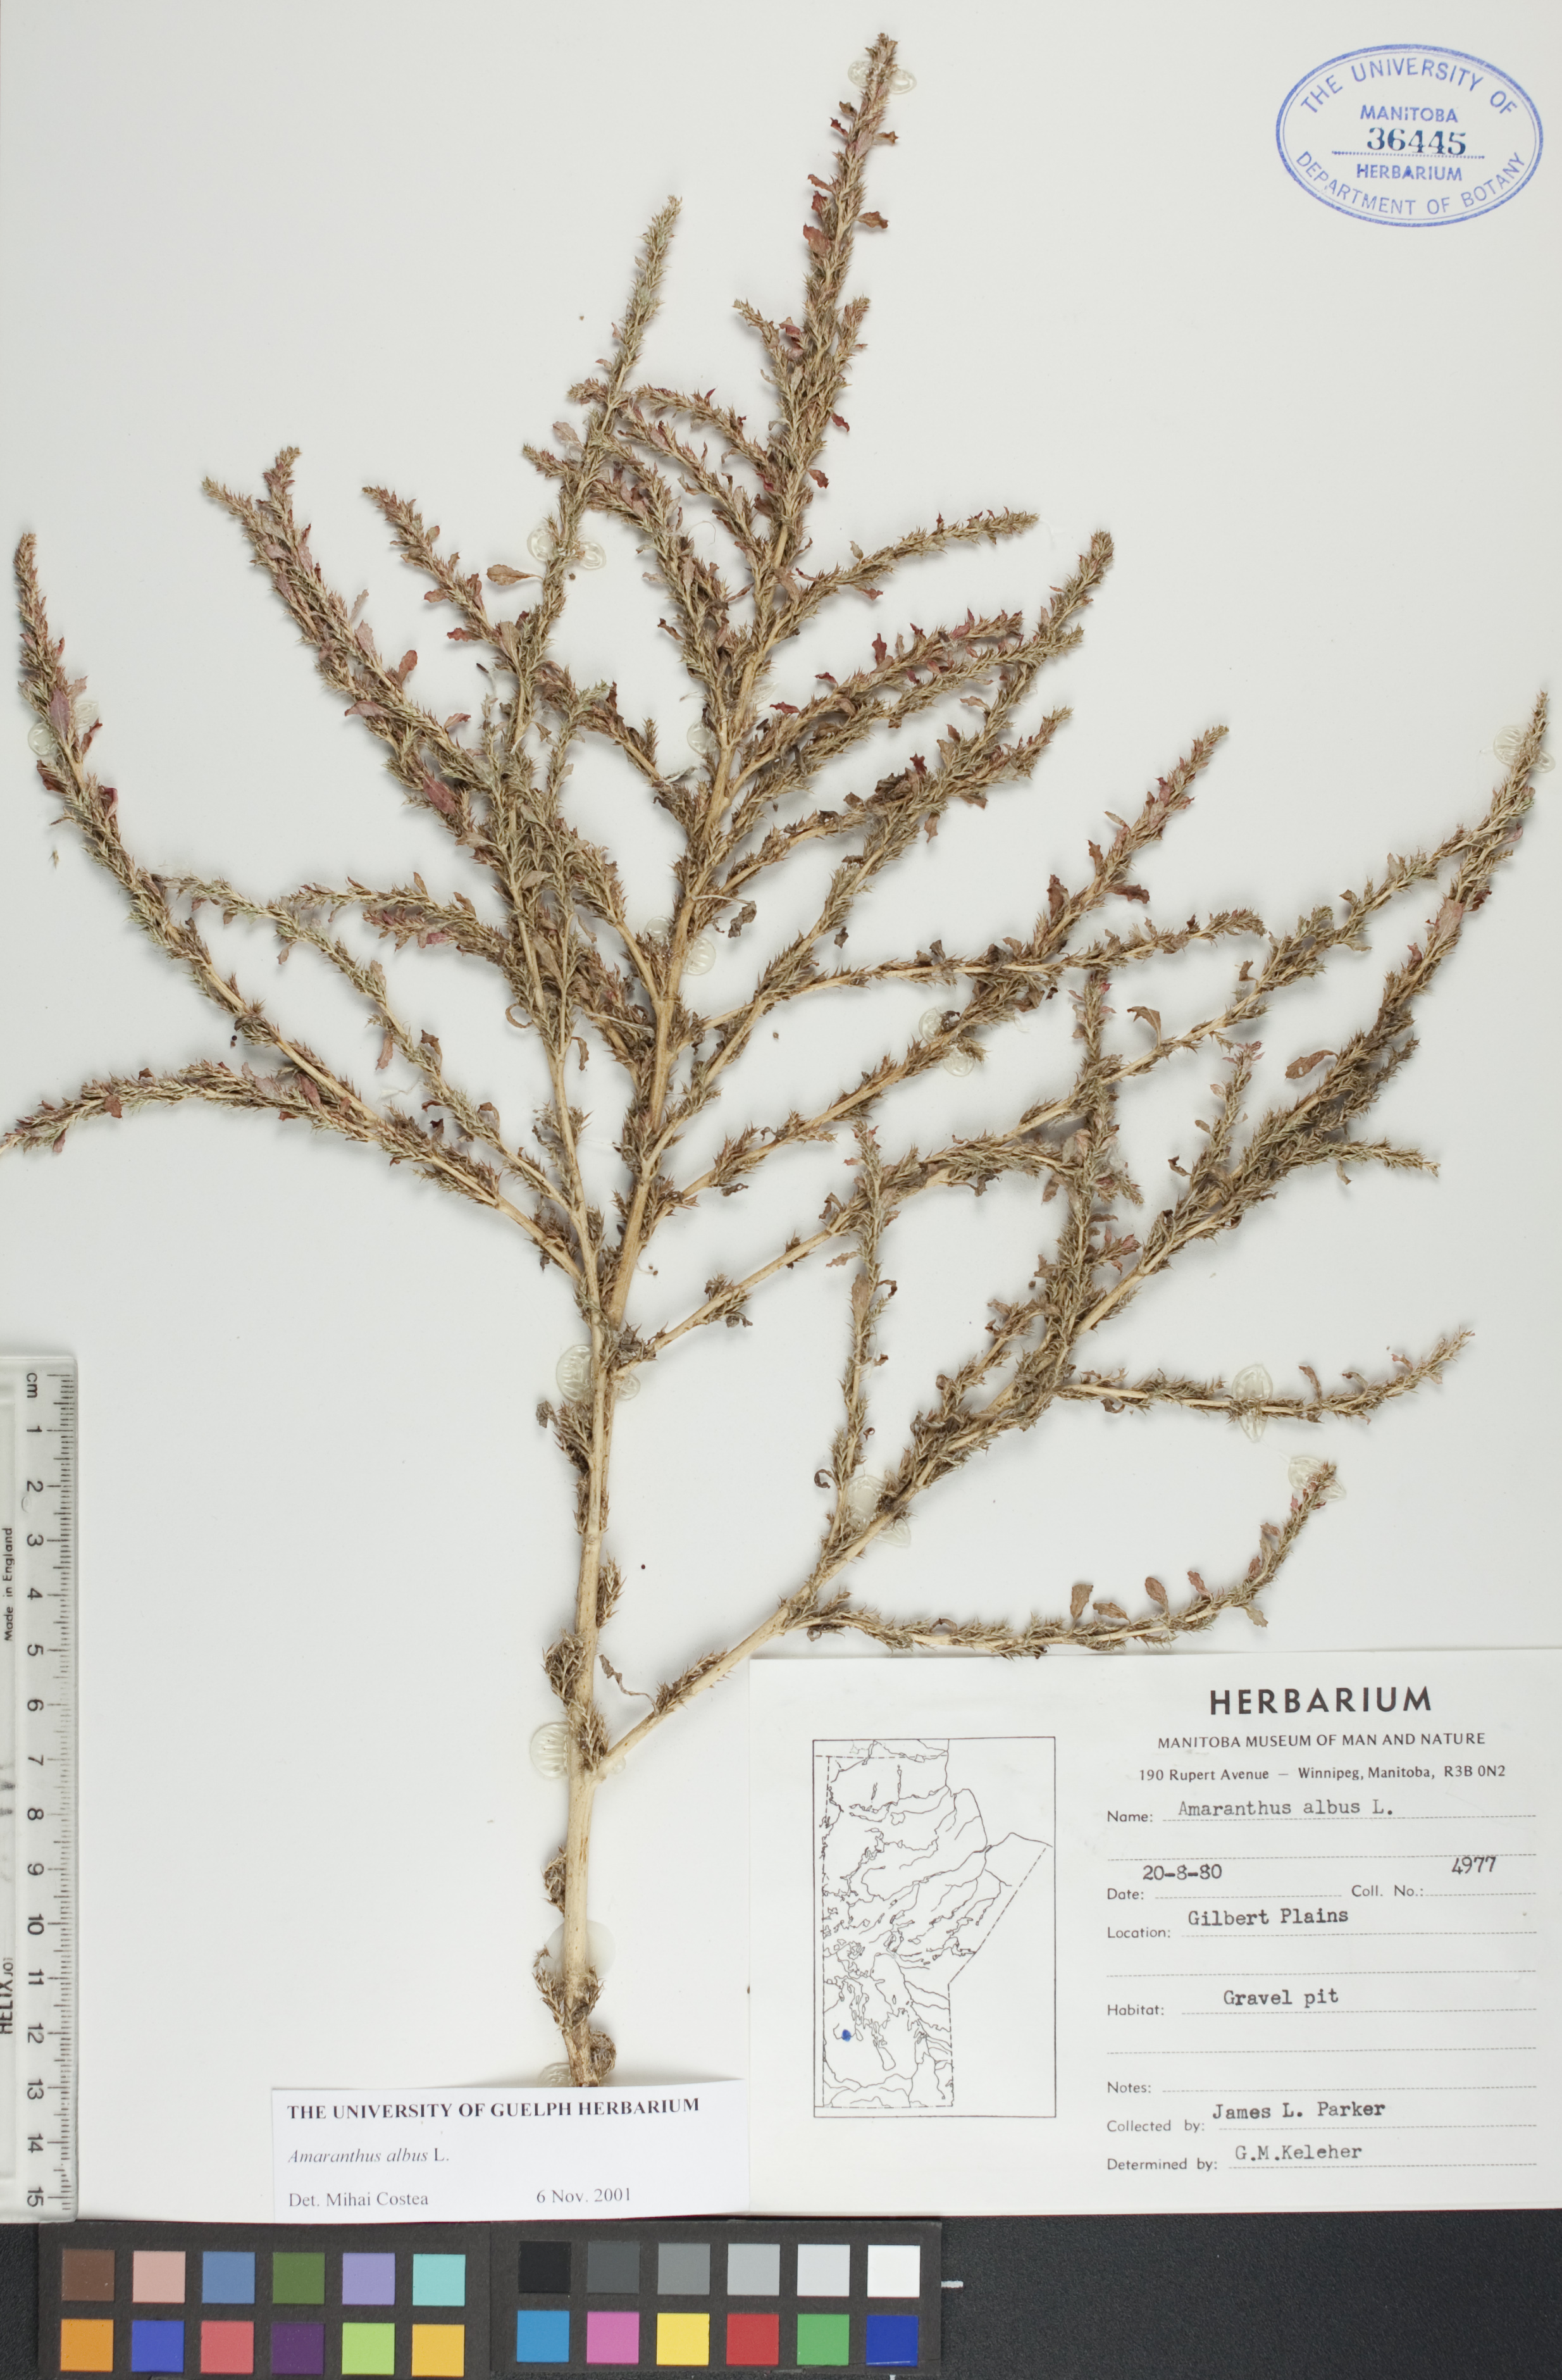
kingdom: Plantae
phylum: Tracheophyta
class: Magnoliopsida
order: Caryophyllales
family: Amaranthaceae
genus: Amaranthus
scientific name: Amaranthus albus
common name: White pigweed
